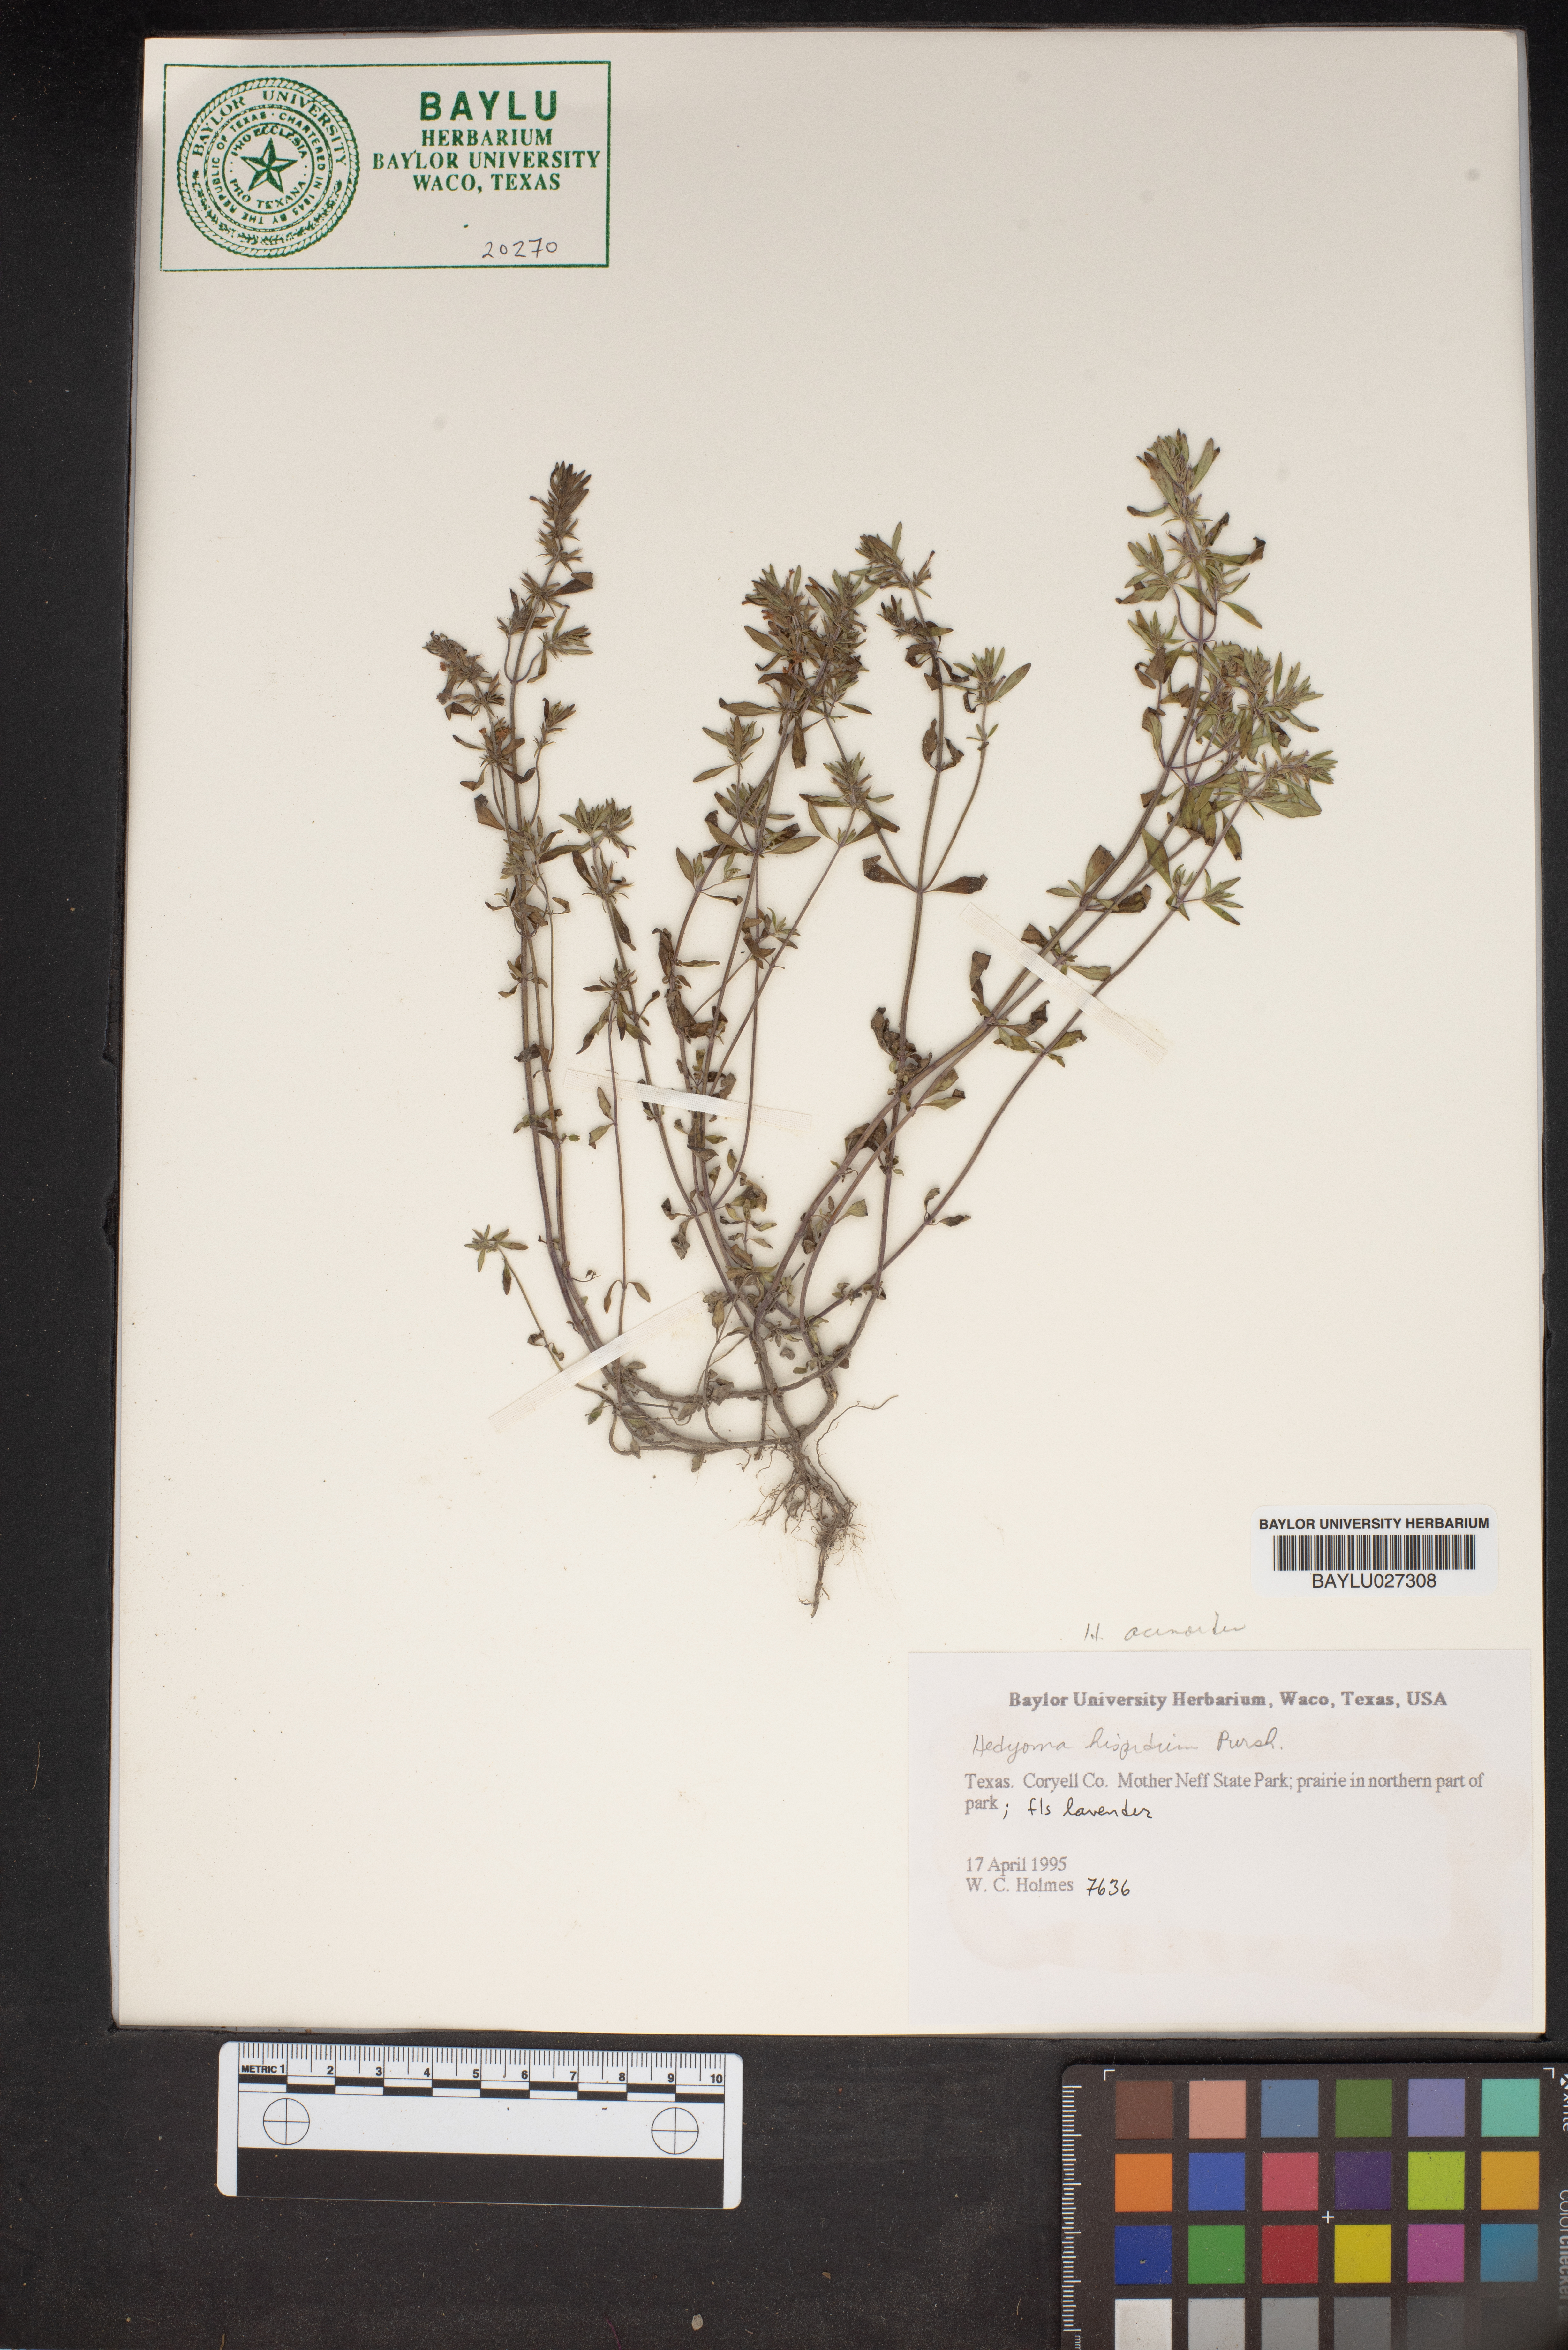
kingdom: Plantae
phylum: Tracheophyta
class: Magnoliopsida
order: Lamiales
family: Lamiaceae
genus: Hedeoma
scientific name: Hedeoma acinoides
